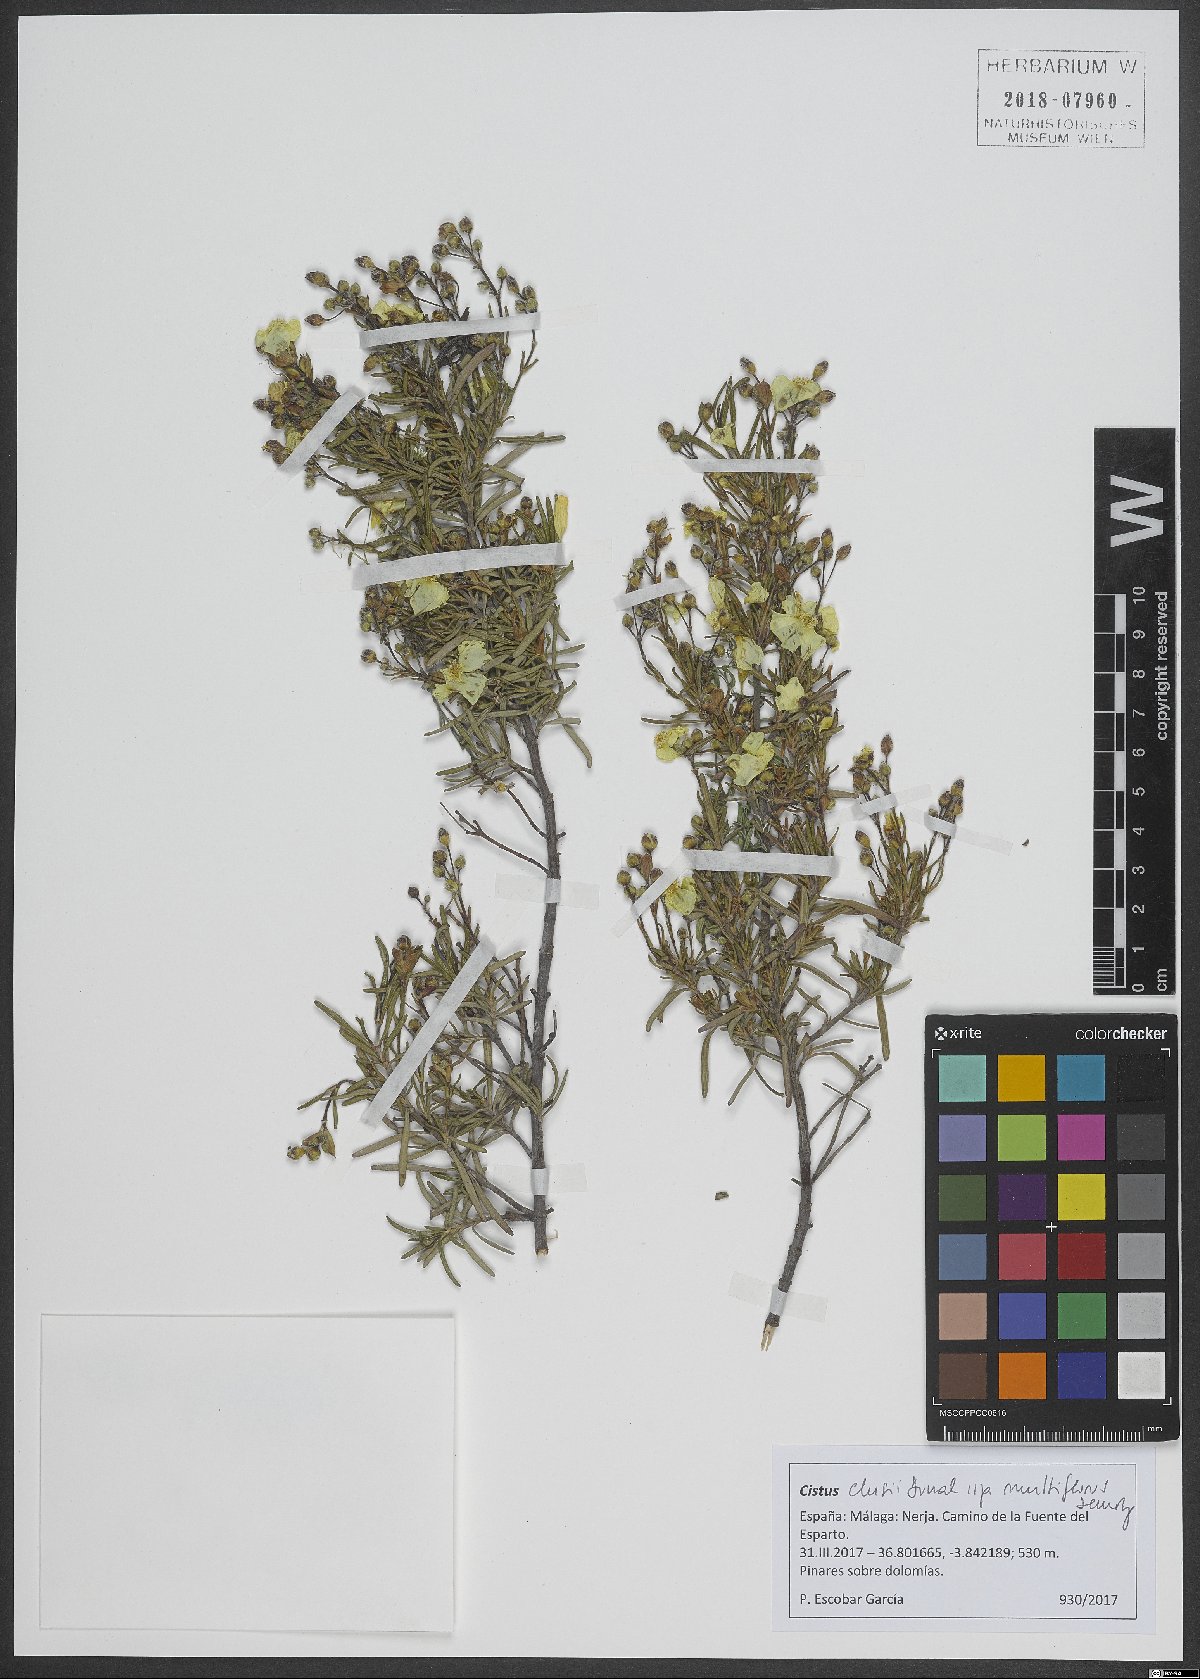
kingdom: Plantae
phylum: Tracheophyta
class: Magnoliopsida
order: Malvales
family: Cistaceae
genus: Cistus
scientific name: Cistus clusii
